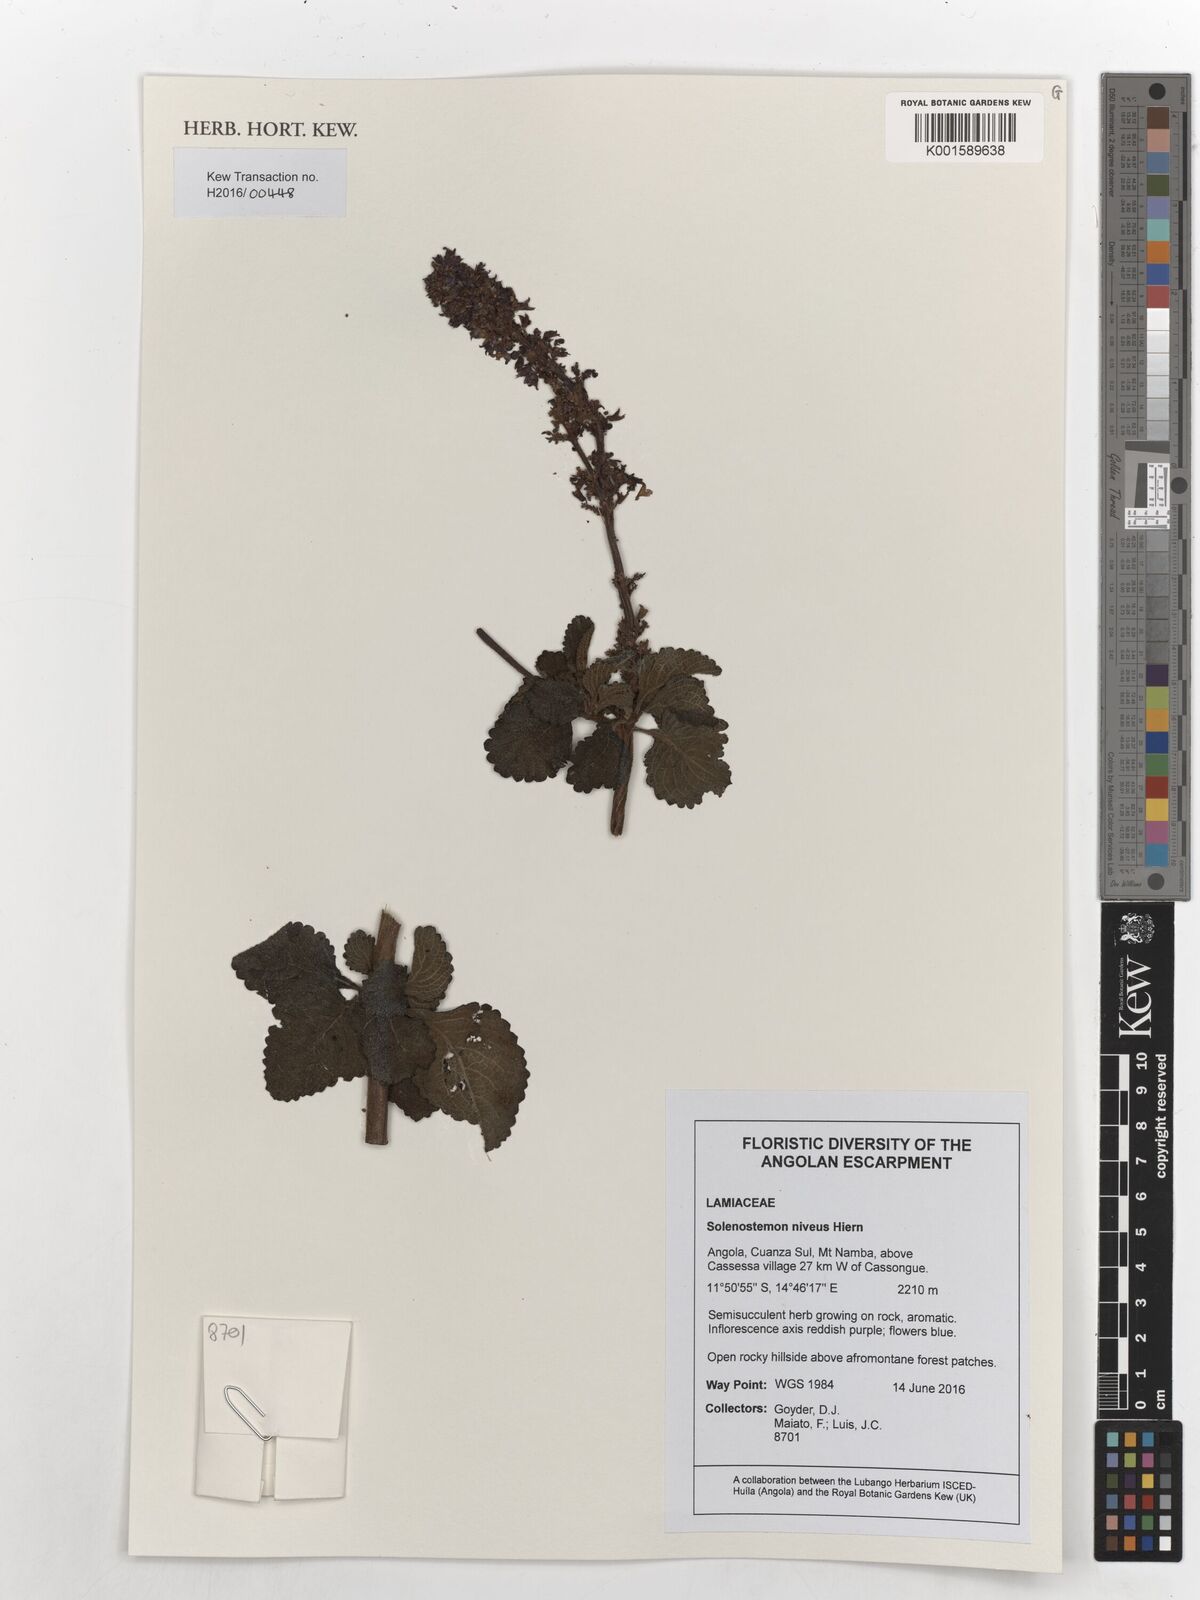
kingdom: Plantae
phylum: Tracheophyta
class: Magnoliopsida
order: Lamiales
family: Lamiaceae
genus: Coleus
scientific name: Coleus niveus
